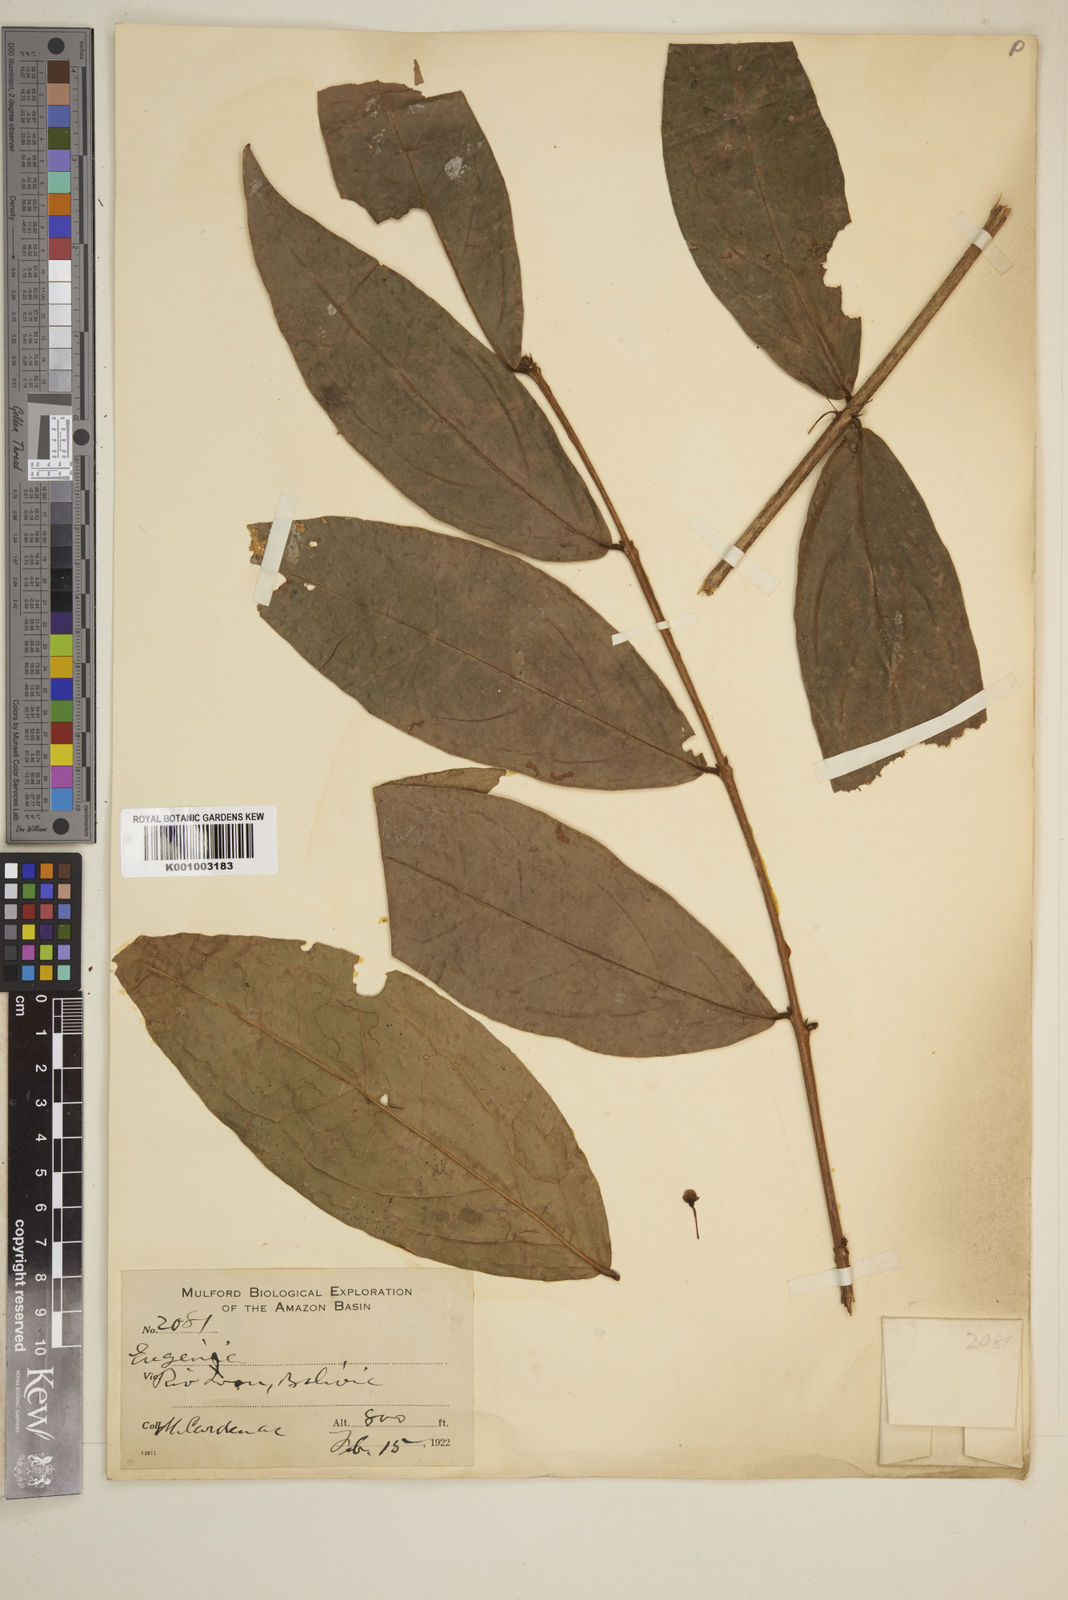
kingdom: Plantae
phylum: Tracheophyta
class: Magnoliopsida
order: Myrtales
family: Myrtaceae
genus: Eugenia
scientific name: Eugenia
